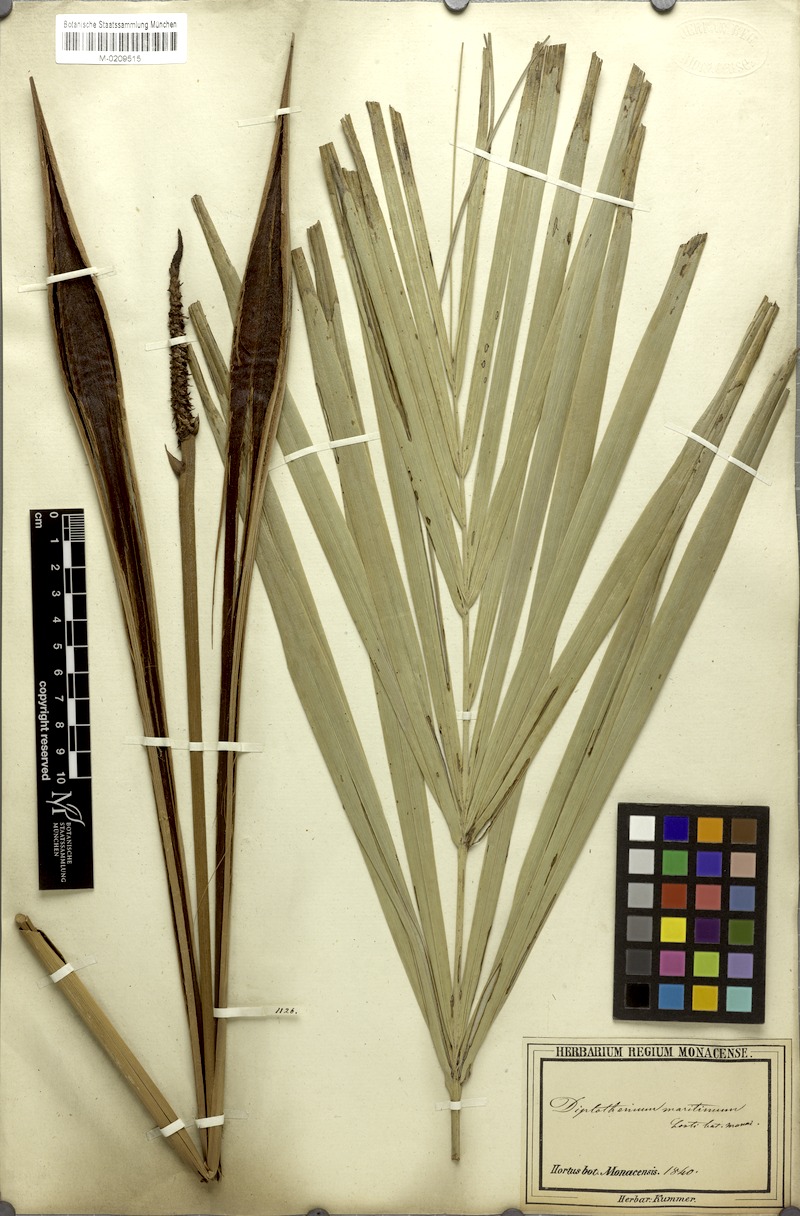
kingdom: Plantae
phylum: Tracheophyta
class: Liliopsida
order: Arecales
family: Arecaceae
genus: Allagoptera
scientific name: Allagoptera arenaria
